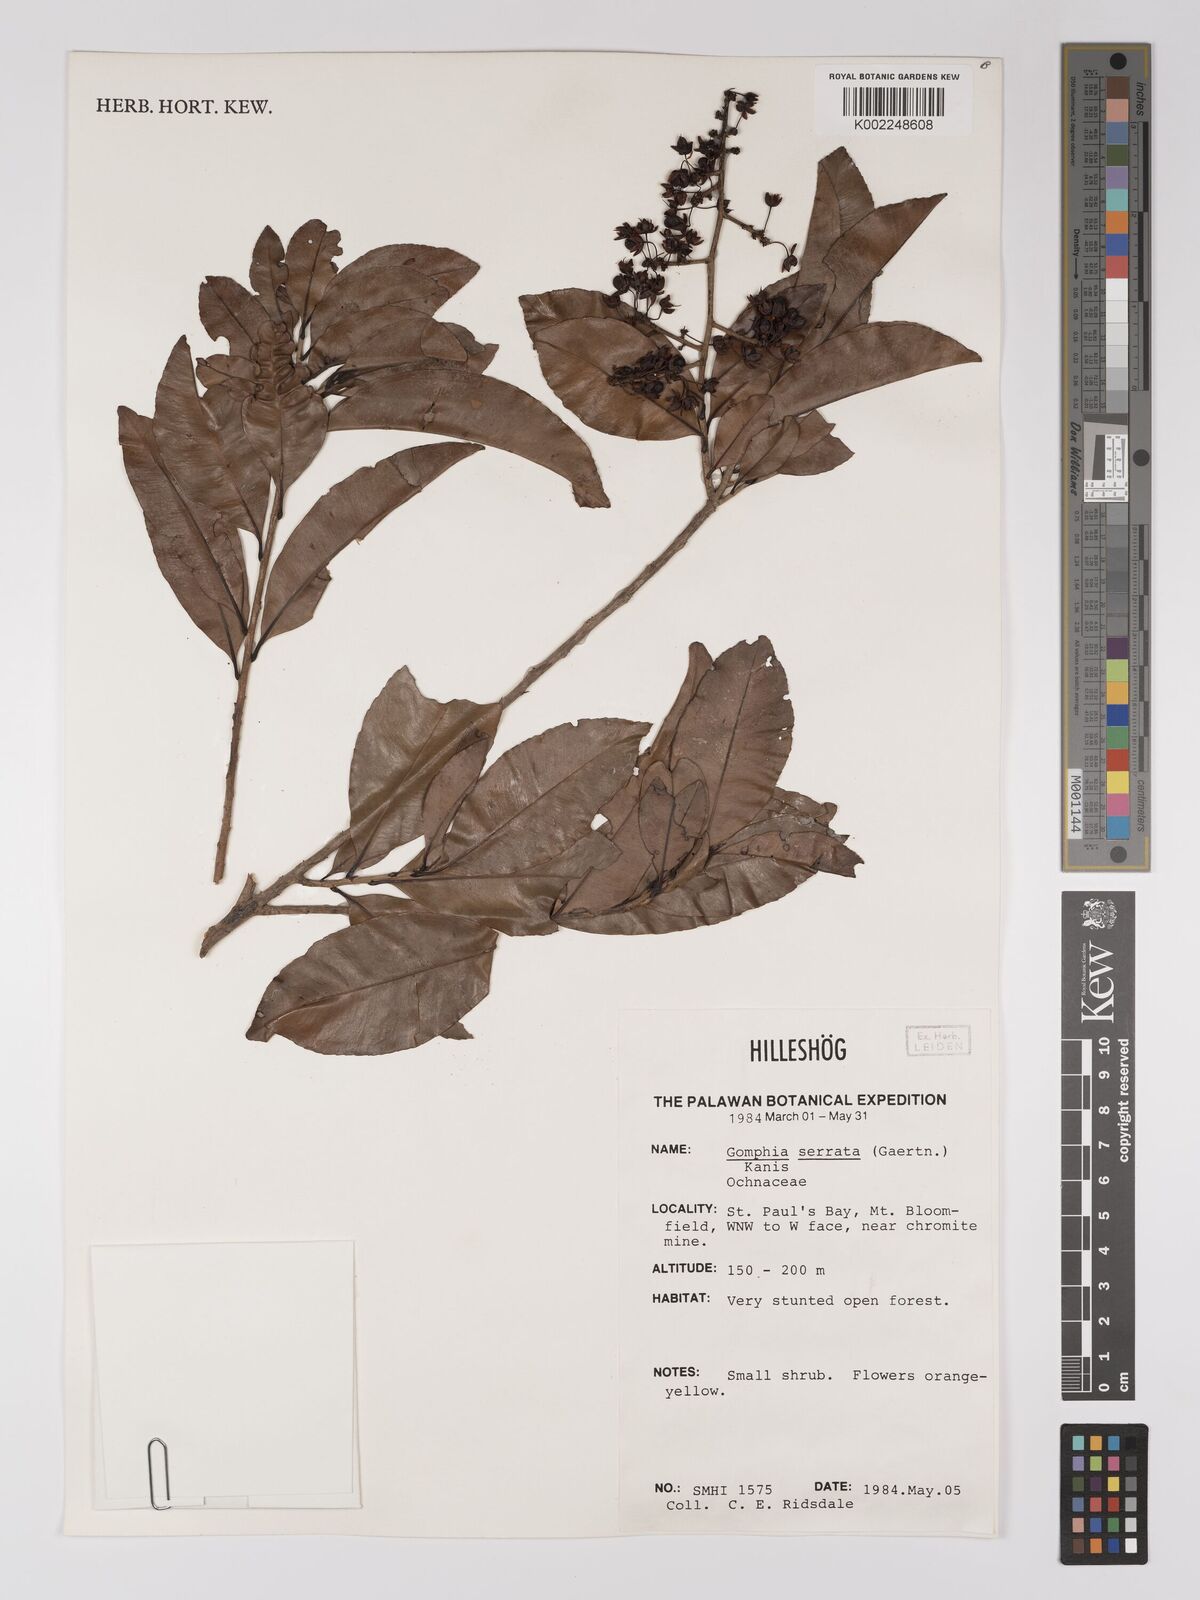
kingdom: Plantae
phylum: Tracheophyta
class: Magnoliopsida
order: Malpighiales
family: Ochnaceae
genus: Gomphia
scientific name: Gomphia serrata
